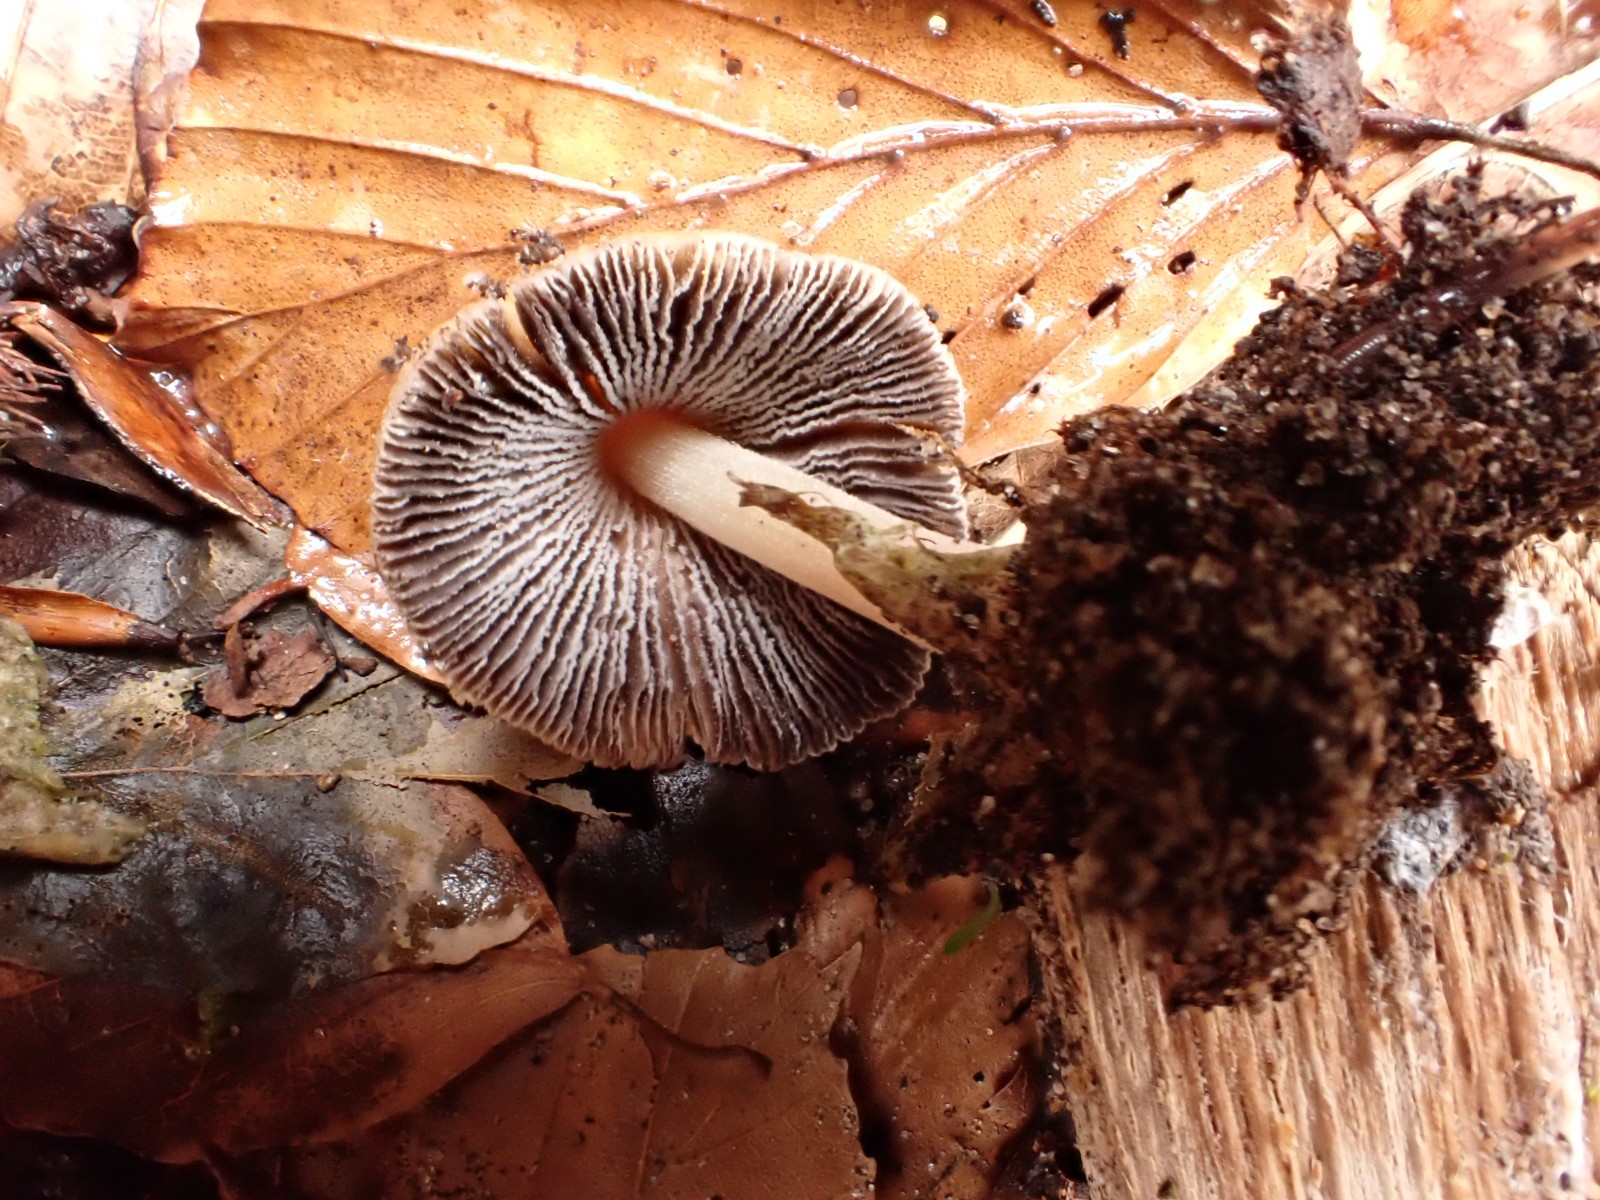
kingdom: Fungi
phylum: Basidiomycota
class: Agaricomycetes
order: Agaricales
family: Psathyrellaceae
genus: Coprinellus
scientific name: Coprinellus micaceus
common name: glimmer-blækhat
